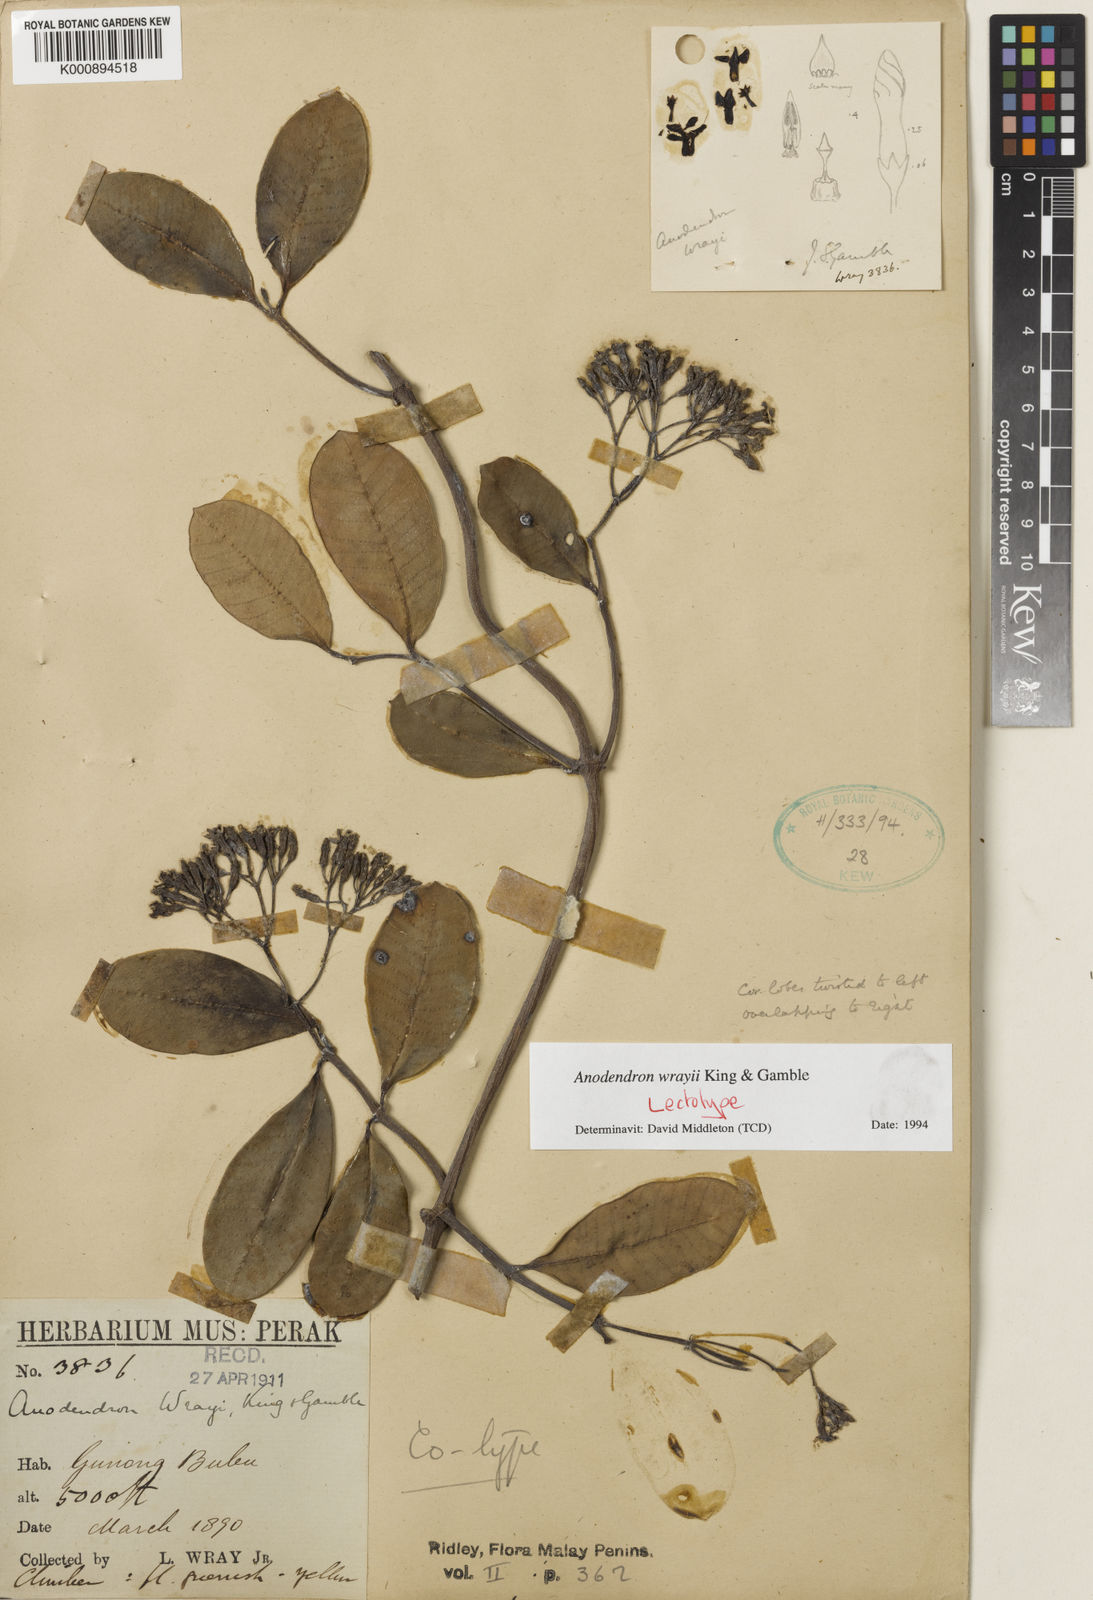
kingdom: Plantae
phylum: Tracheophyta
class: Magnoliopsida
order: Gentianales
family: Apocynaceae
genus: Anodendron
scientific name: Anodendron wrayi
